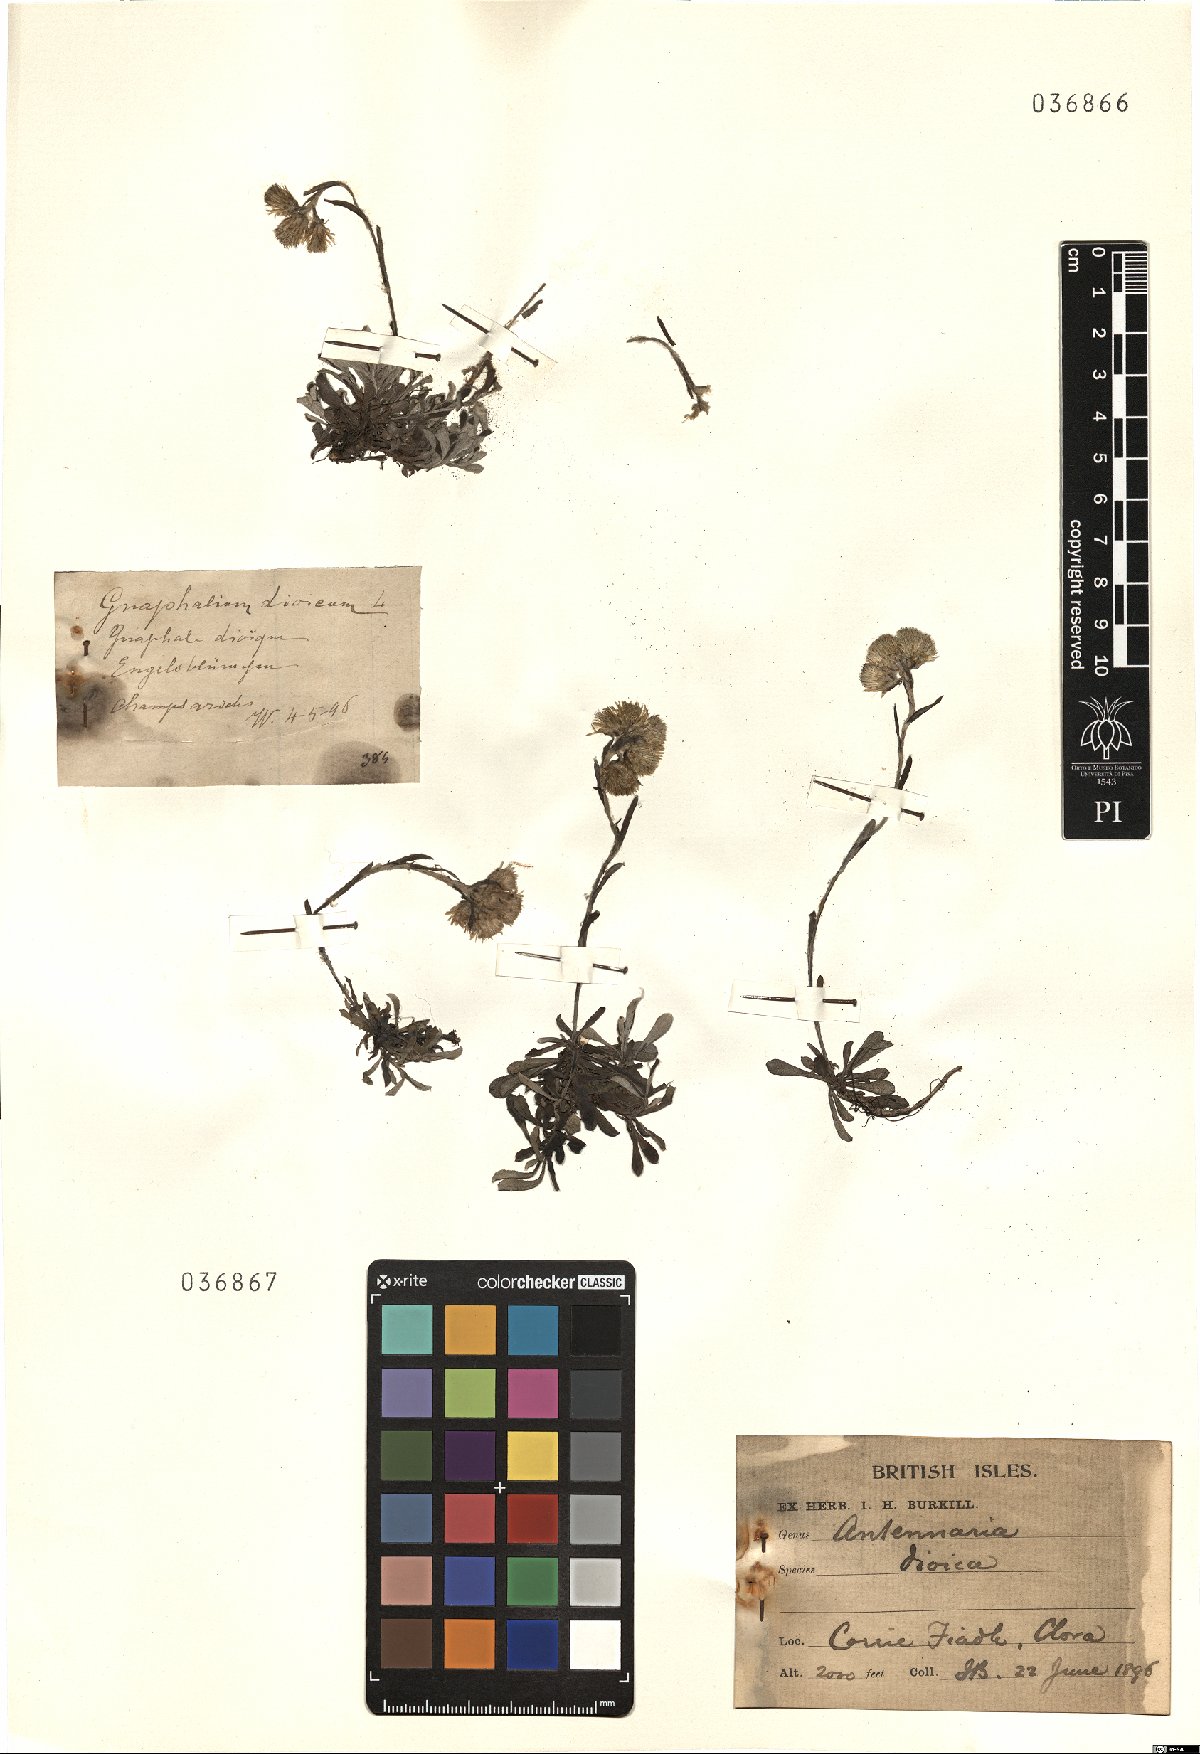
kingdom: Plantae
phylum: Tracheophyta
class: Magnoliopsida
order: Asterales
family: Asteraceae
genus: Antennaria
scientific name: Antennaria dioica
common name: Mountain everlasting
